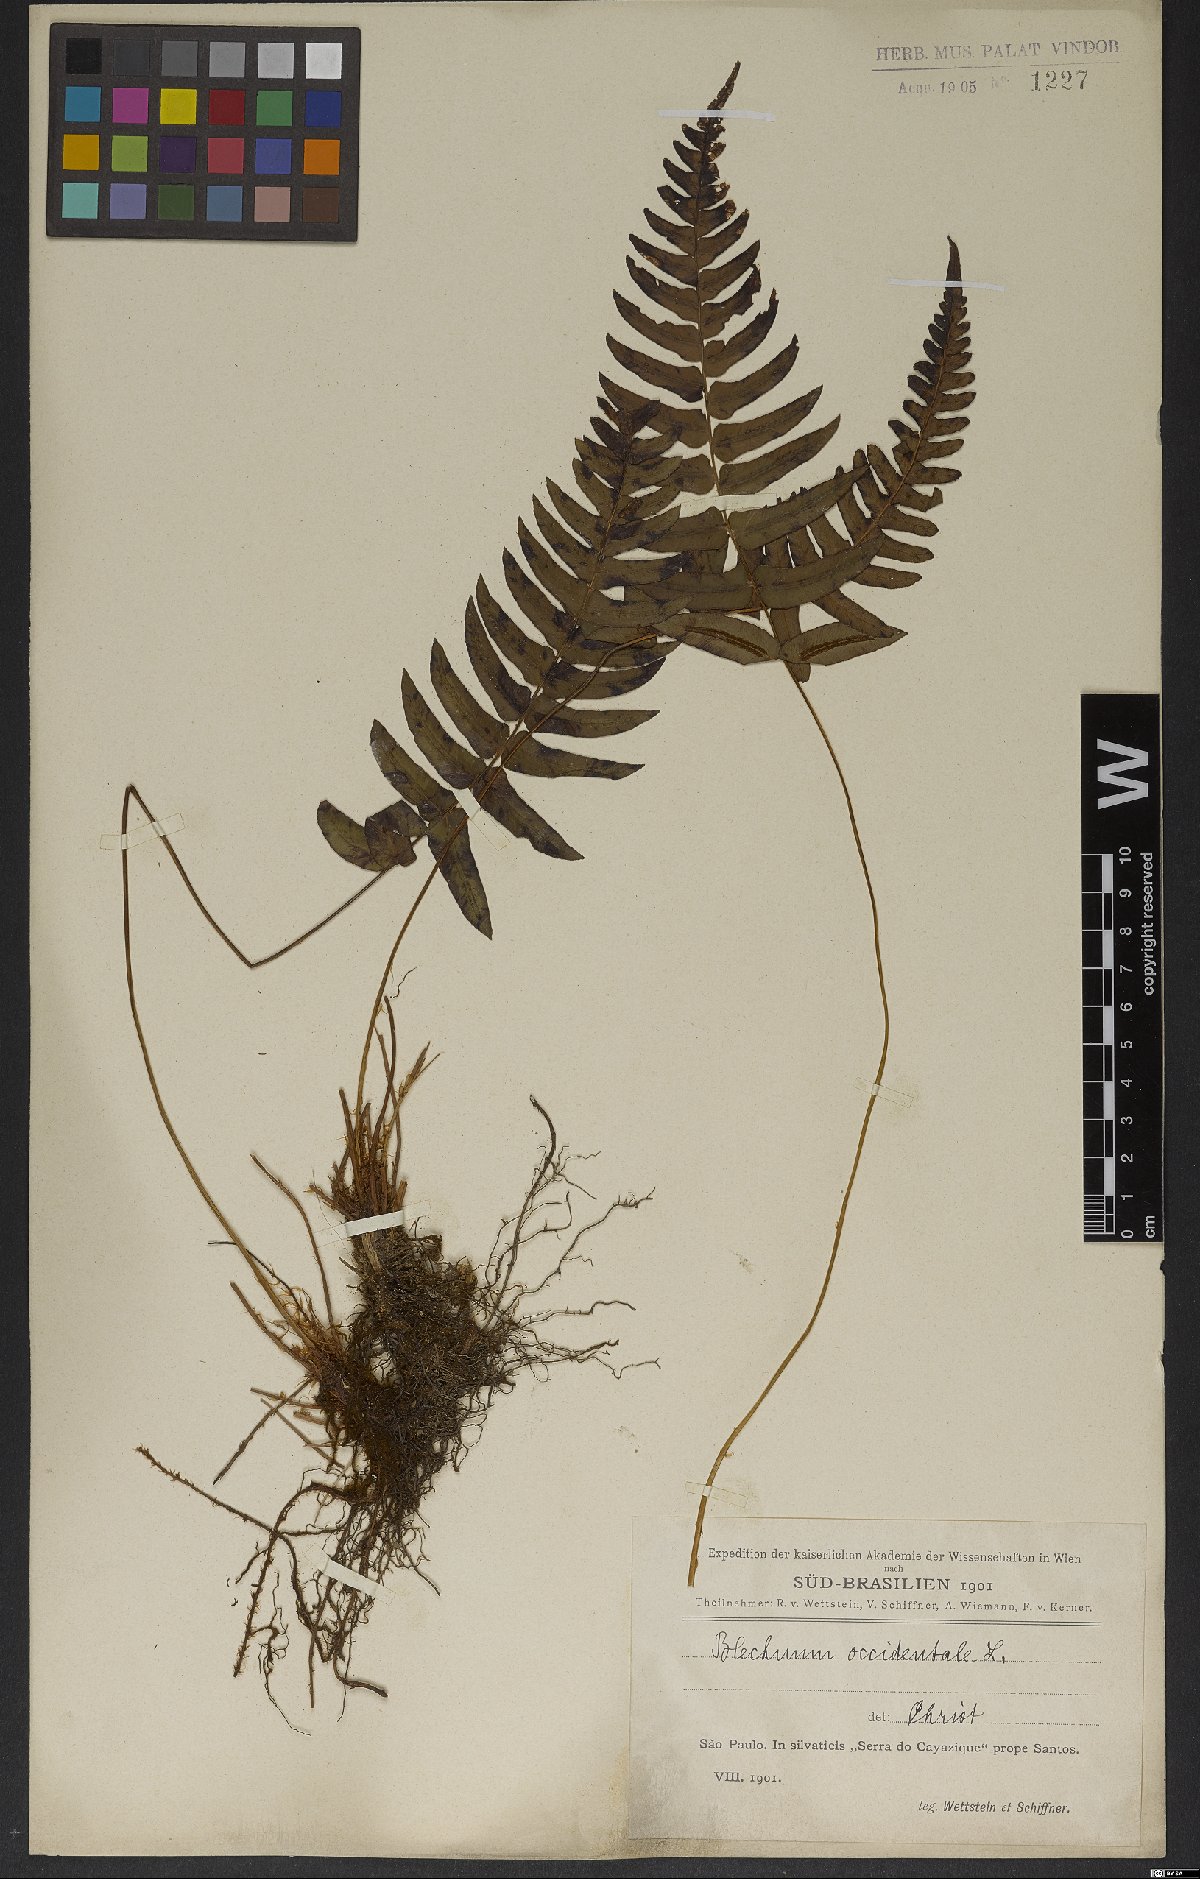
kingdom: Plantae
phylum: Tracheophyta
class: Polypodiopsida
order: Polypodiales
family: Blechnaceae
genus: Blechnum
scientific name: Blechnum occidentale
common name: Hammock fern
